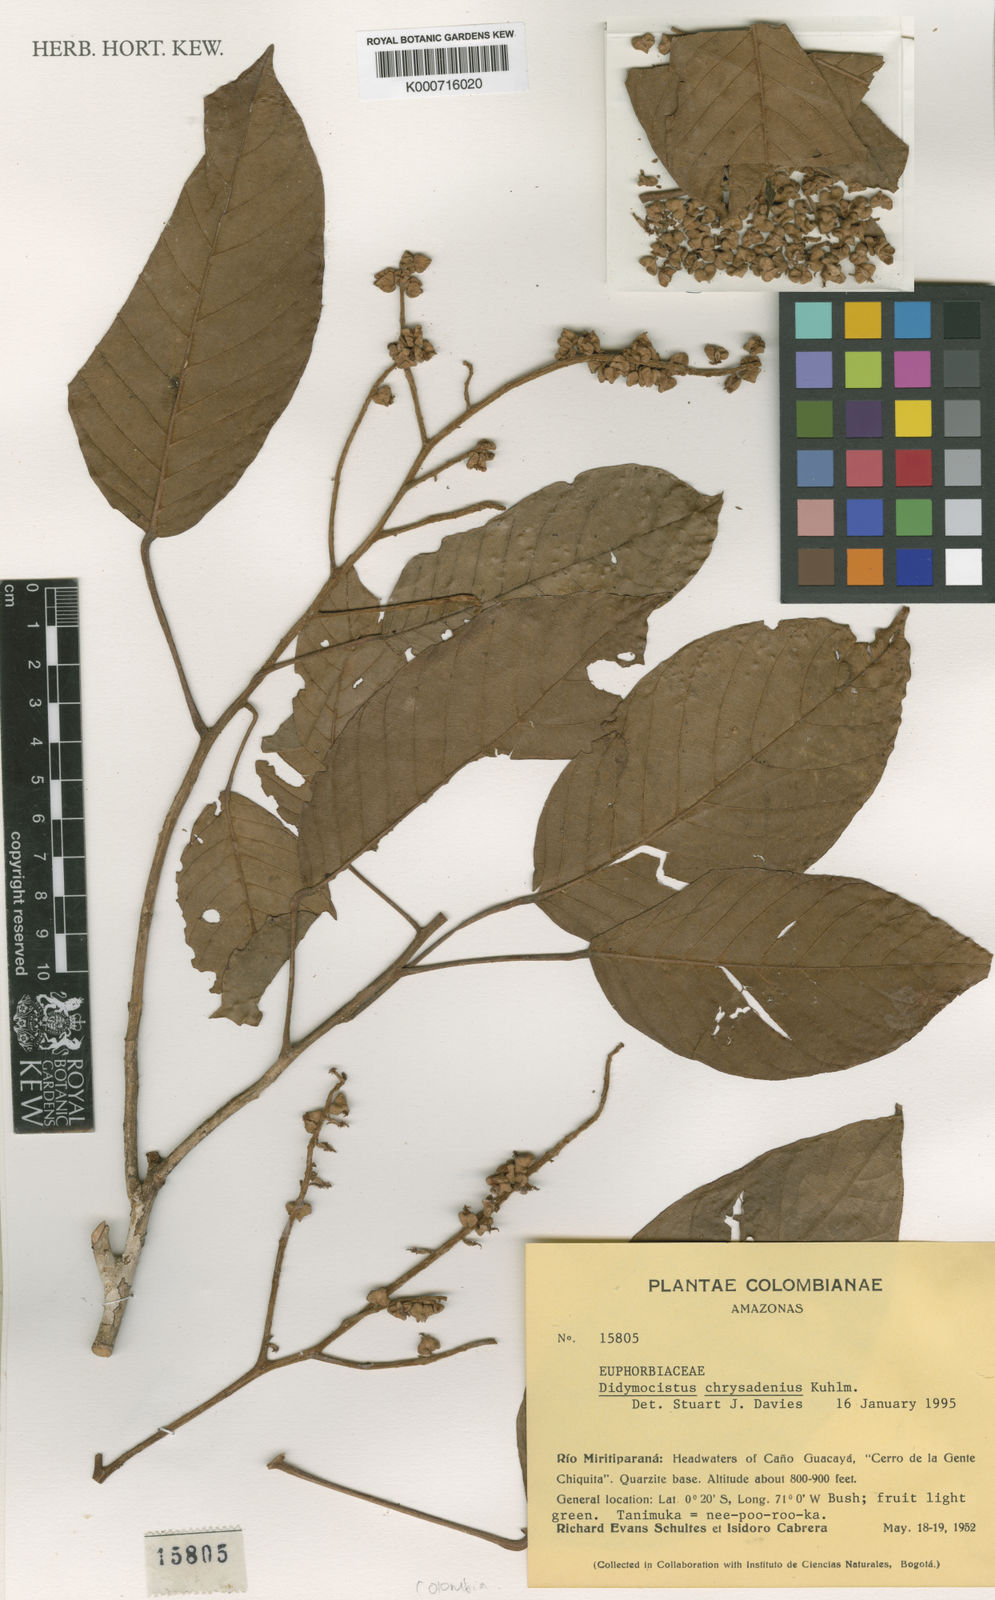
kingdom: Plantae
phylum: Tracheophyta
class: Magnoliopsida
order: Malpighiales
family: Phyllanthaceae
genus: Didymocistus
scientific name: Didymocistus chrysadenius
